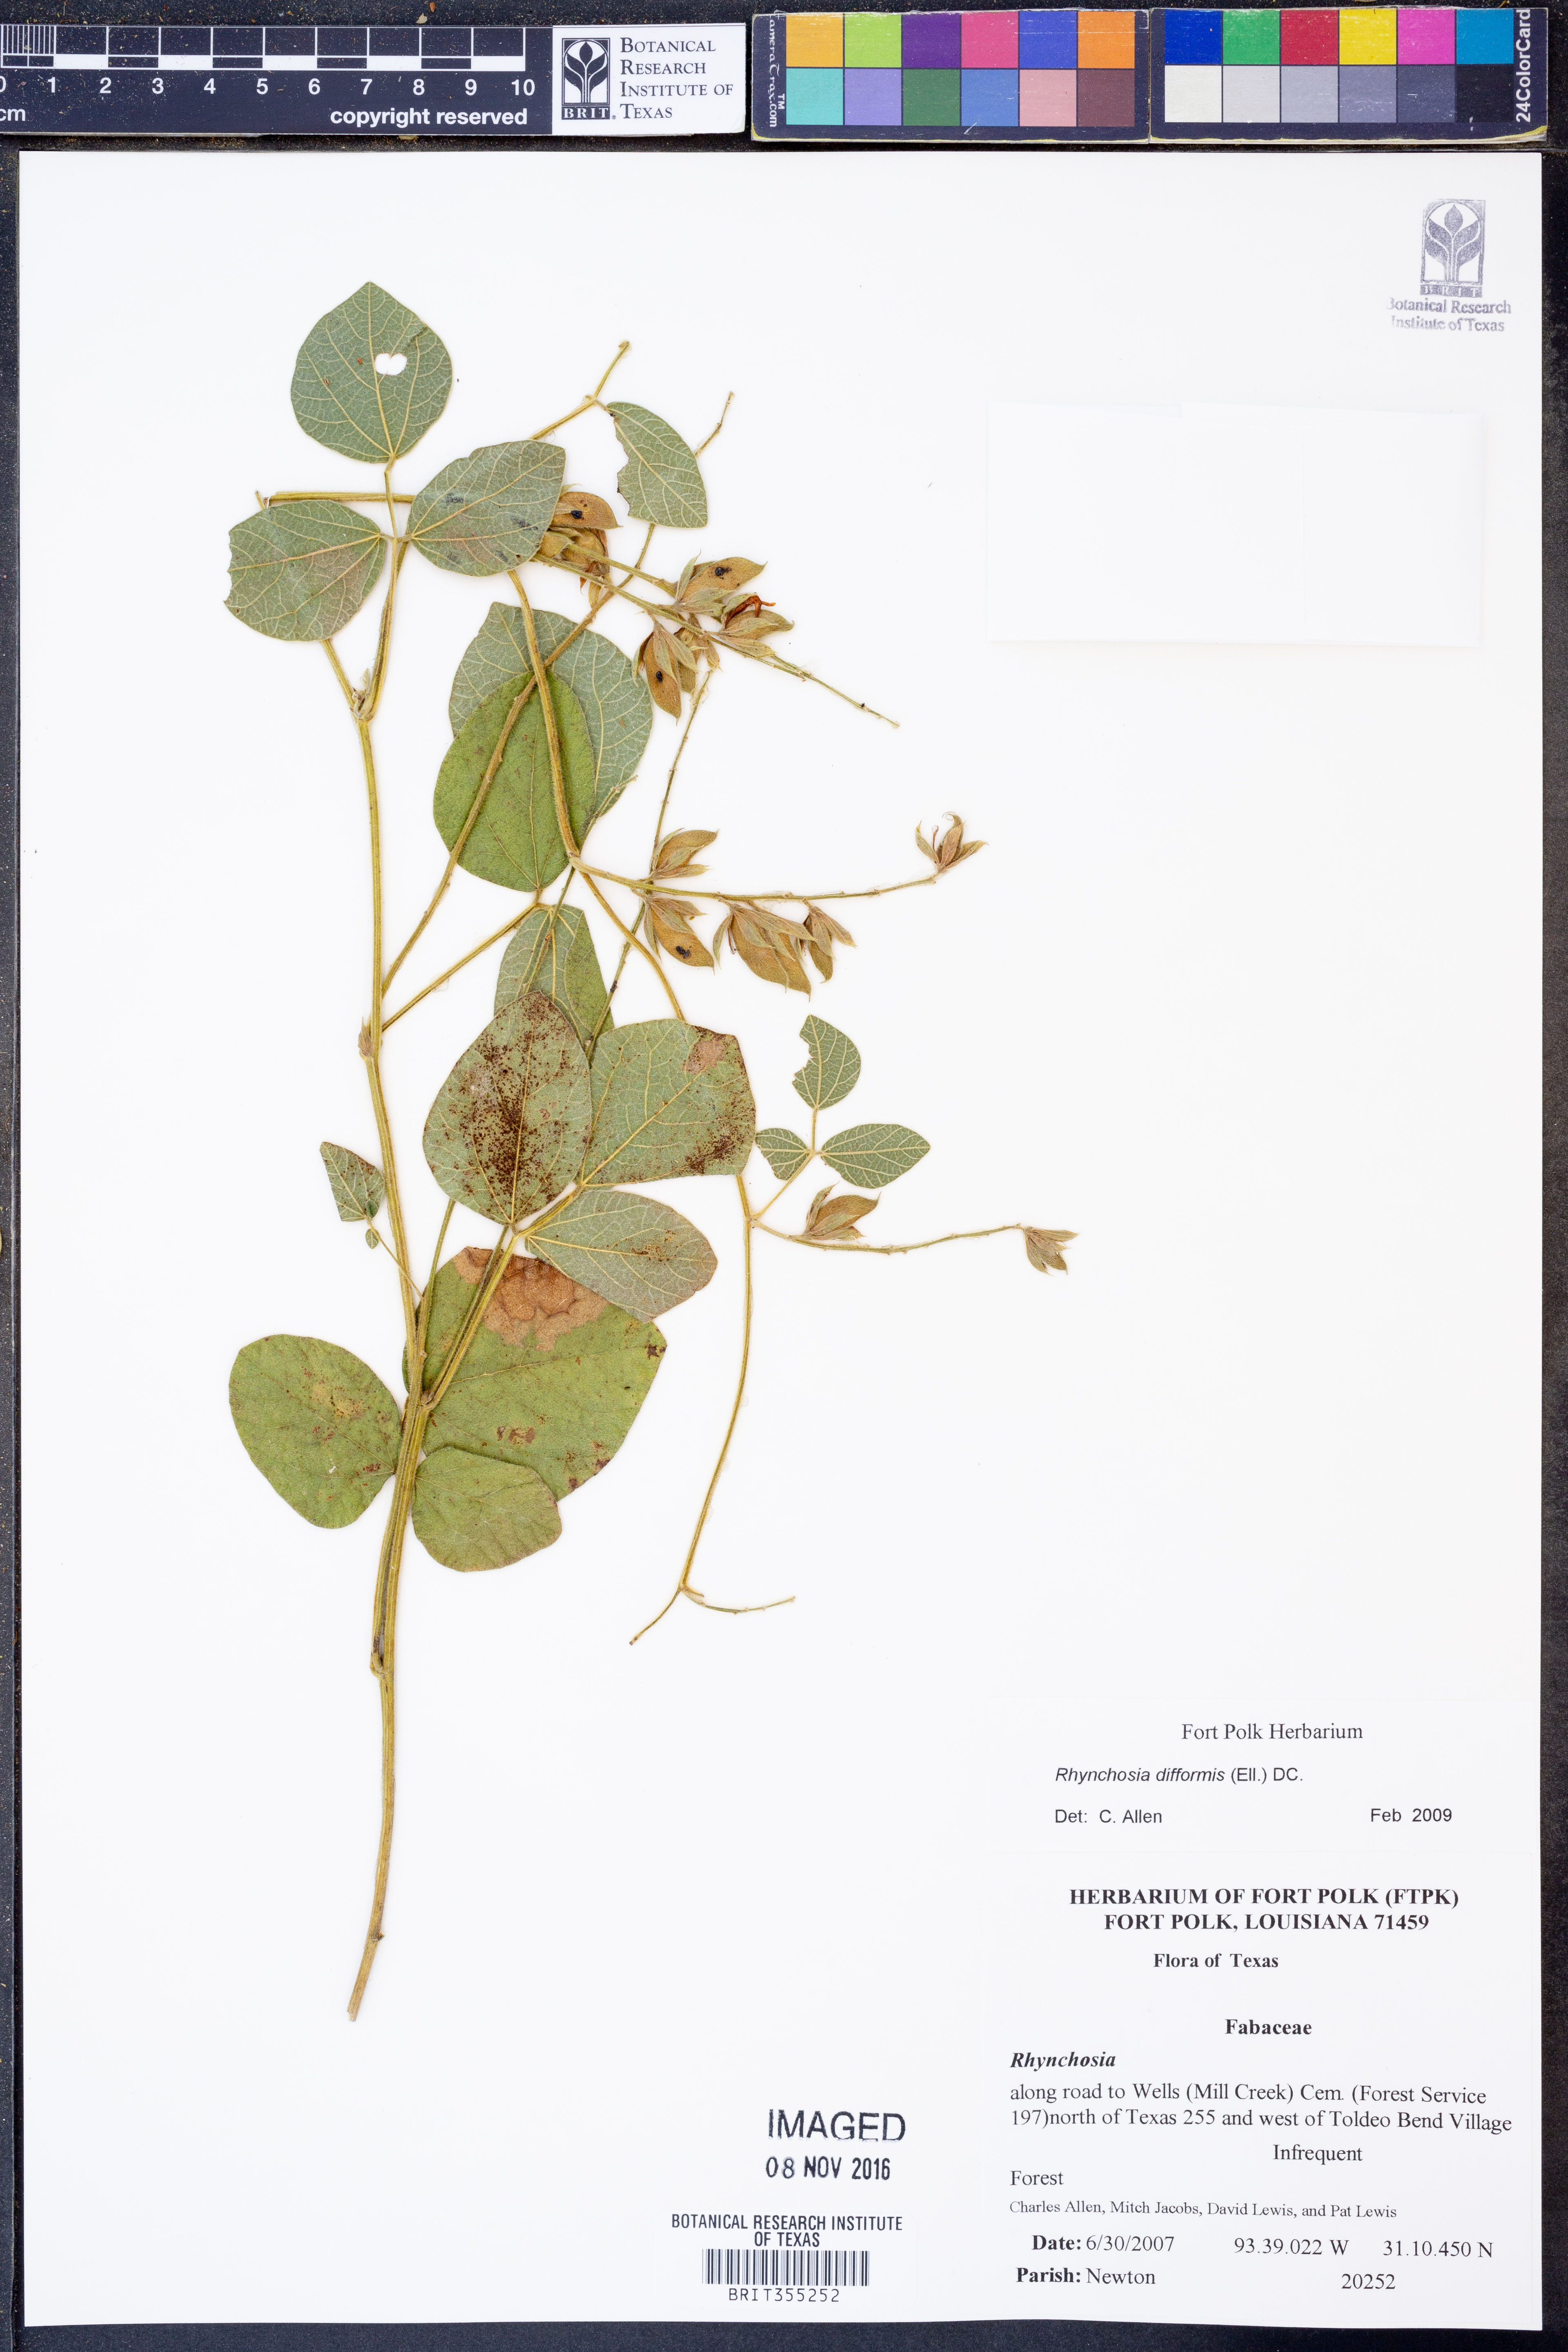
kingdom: Plantae
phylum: Tracheophyta
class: Magnoliopsida
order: Fabales
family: Fabaceae
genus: Rhynchosia
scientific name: Rhynchosia difformis
